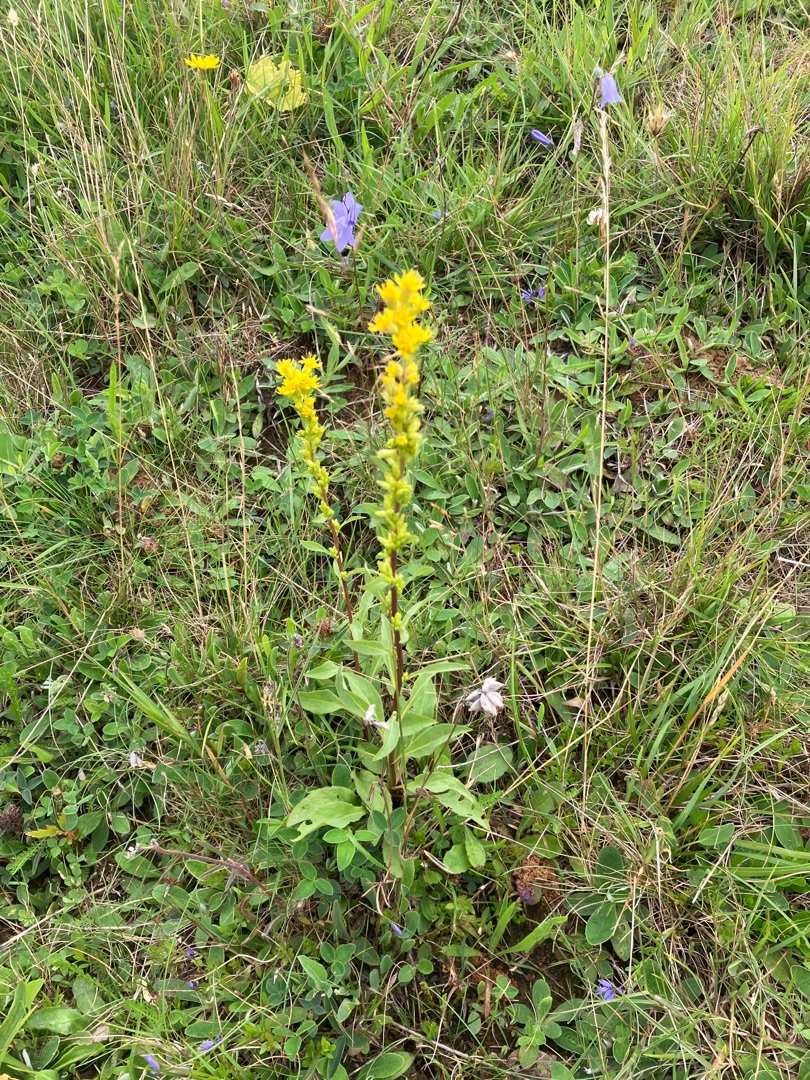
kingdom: Plantae
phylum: Tracheophyta
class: Magnoliopsida
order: Asterales
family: Asteraceae
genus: Solidago
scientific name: Solidago virgaurea
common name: Almindelig gyldenris
